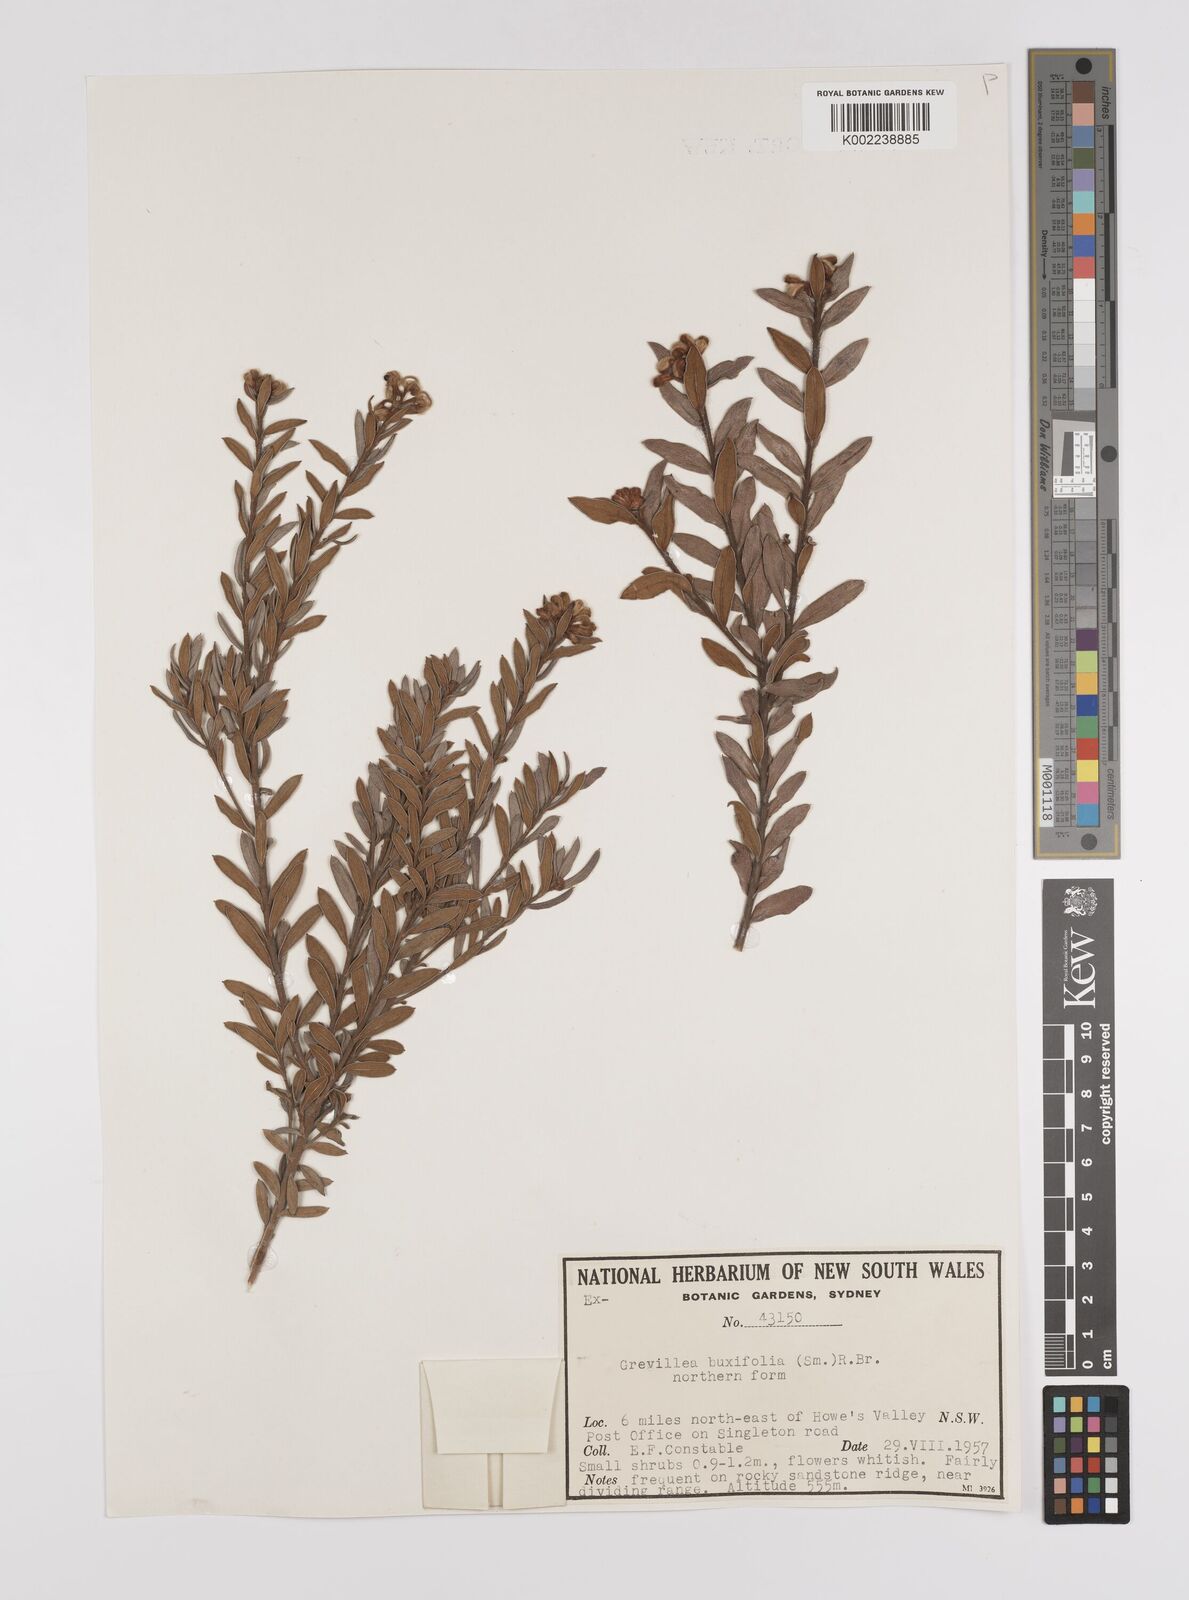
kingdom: Plantae
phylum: Tracheophyta
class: Magnoliopsida
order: Proteales
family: Proteaceae
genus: Grevillea
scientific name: Grevillea buxifolia
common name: Grey spiderflower
